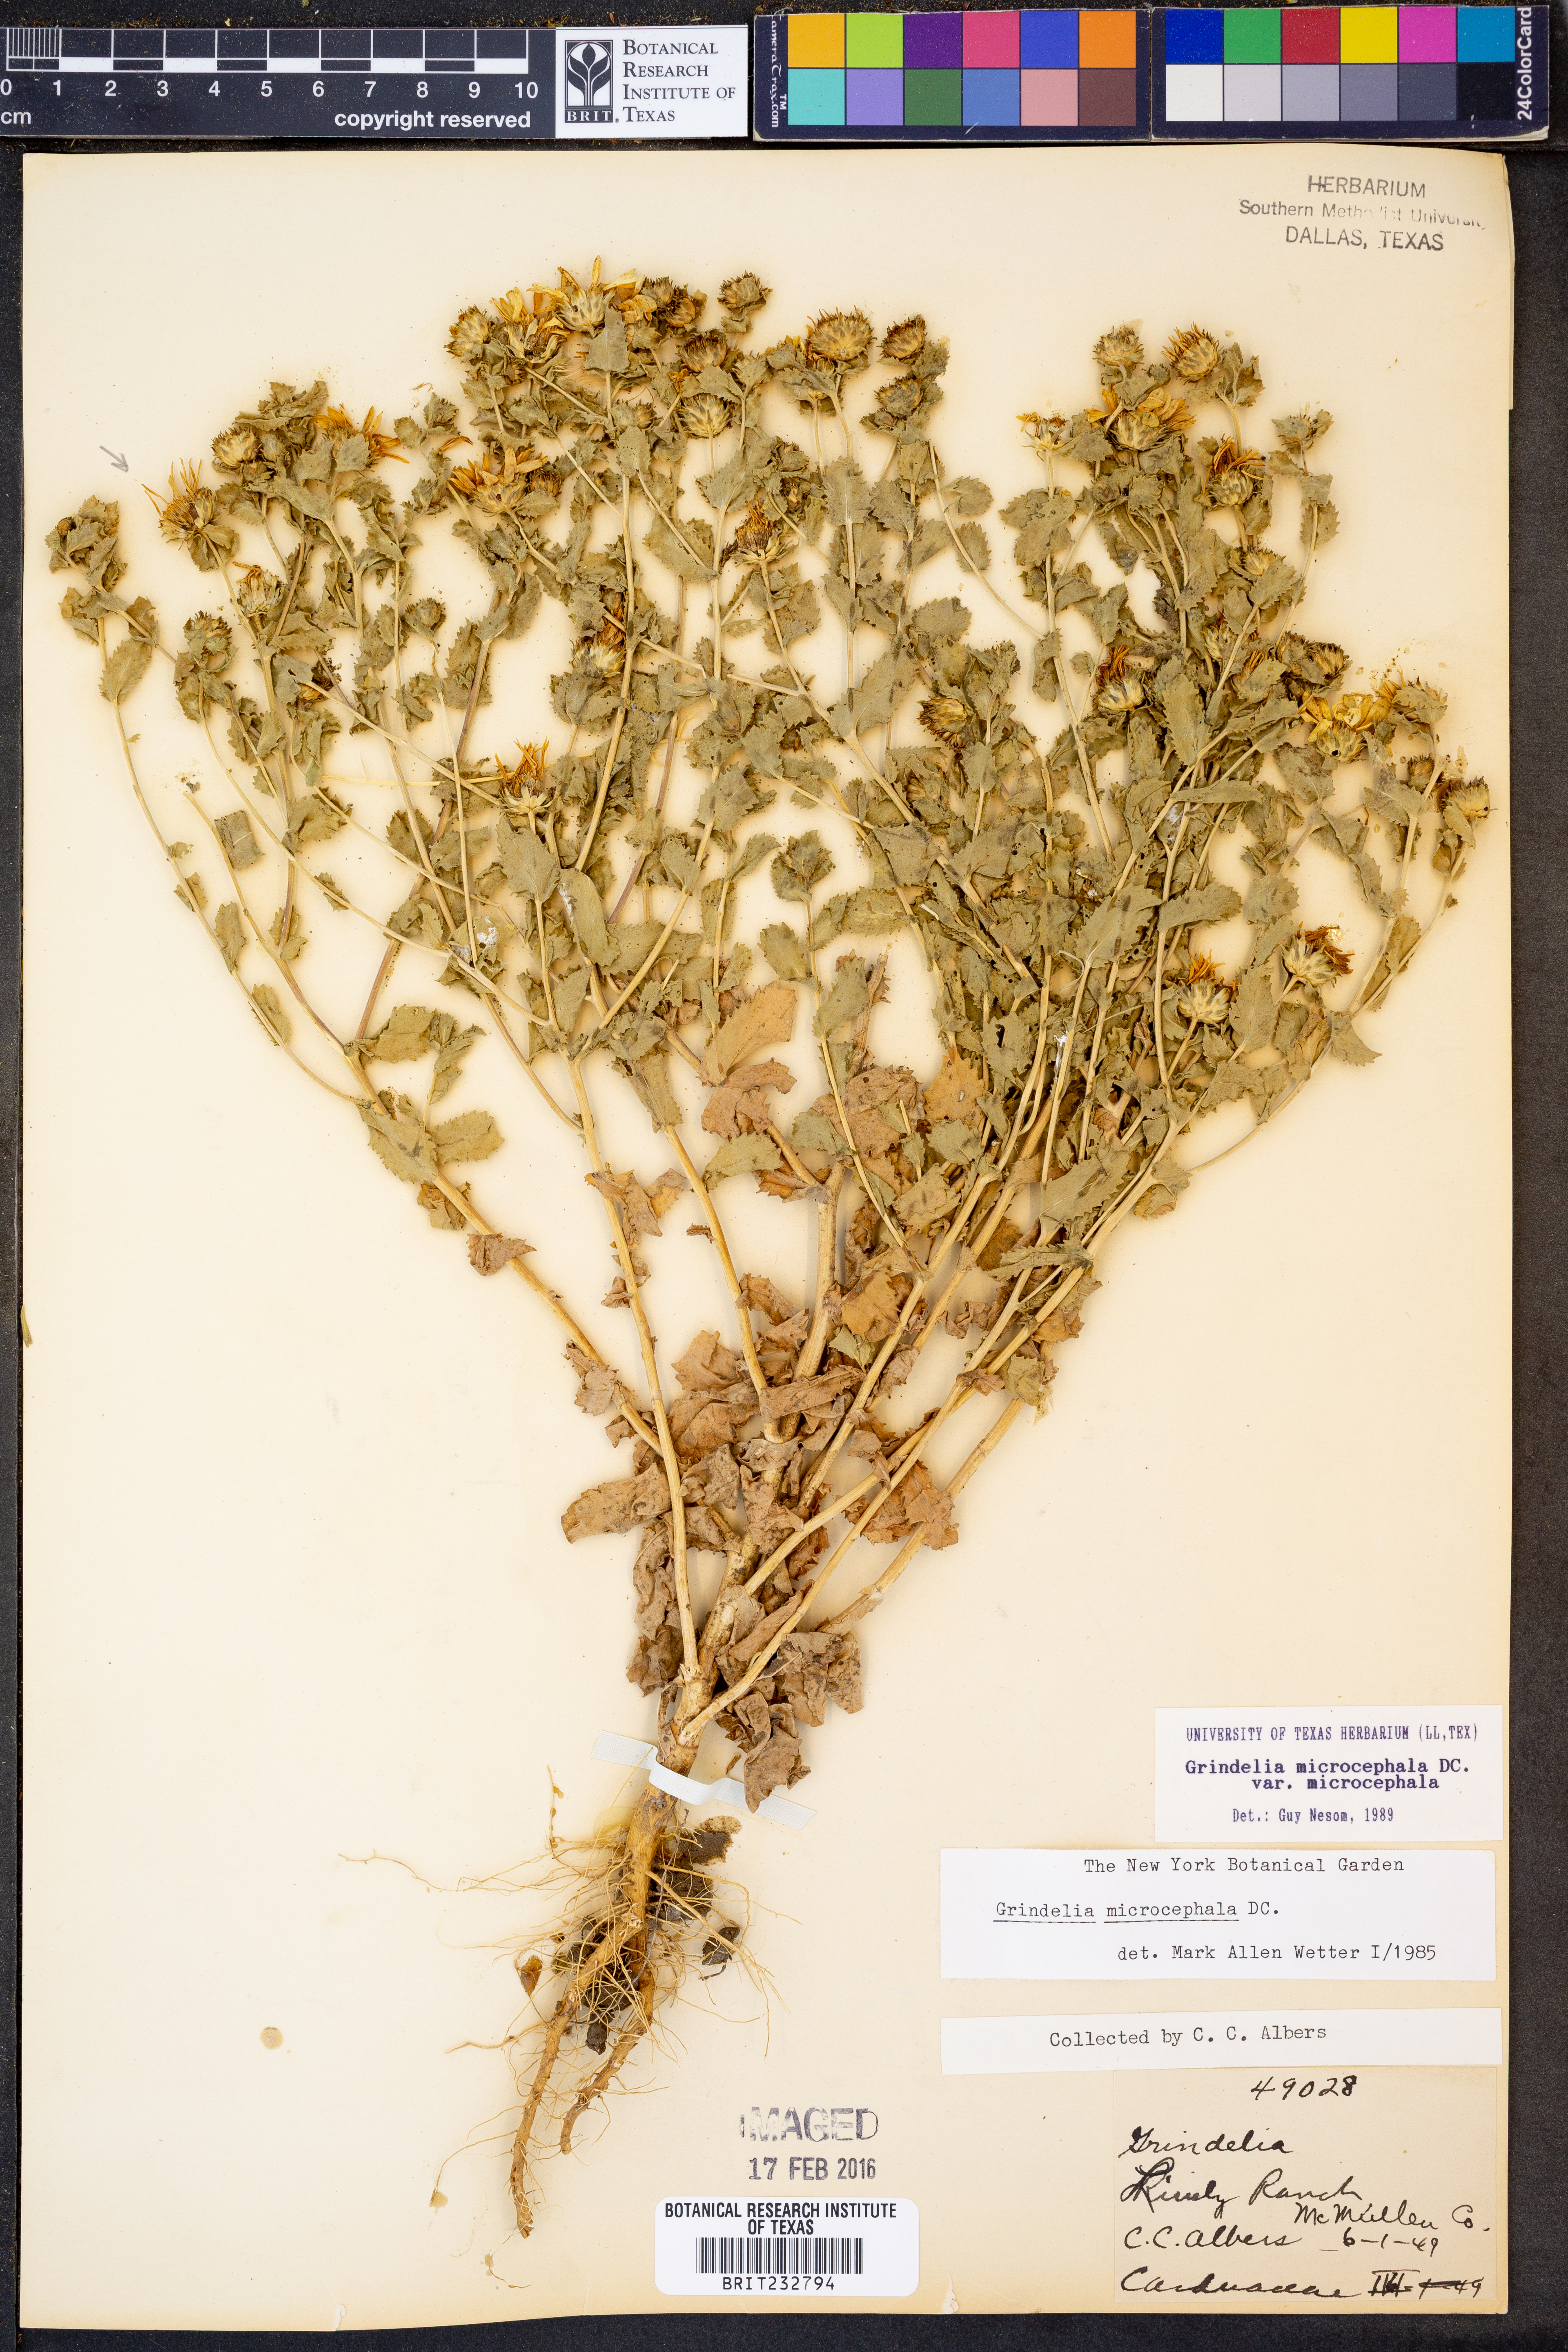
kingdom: Plantae
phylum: Tracheophyta
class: Magnoliopsida
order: Asterales
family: Asteraceae
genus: Grindelia
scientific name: Grindelia microcephala
